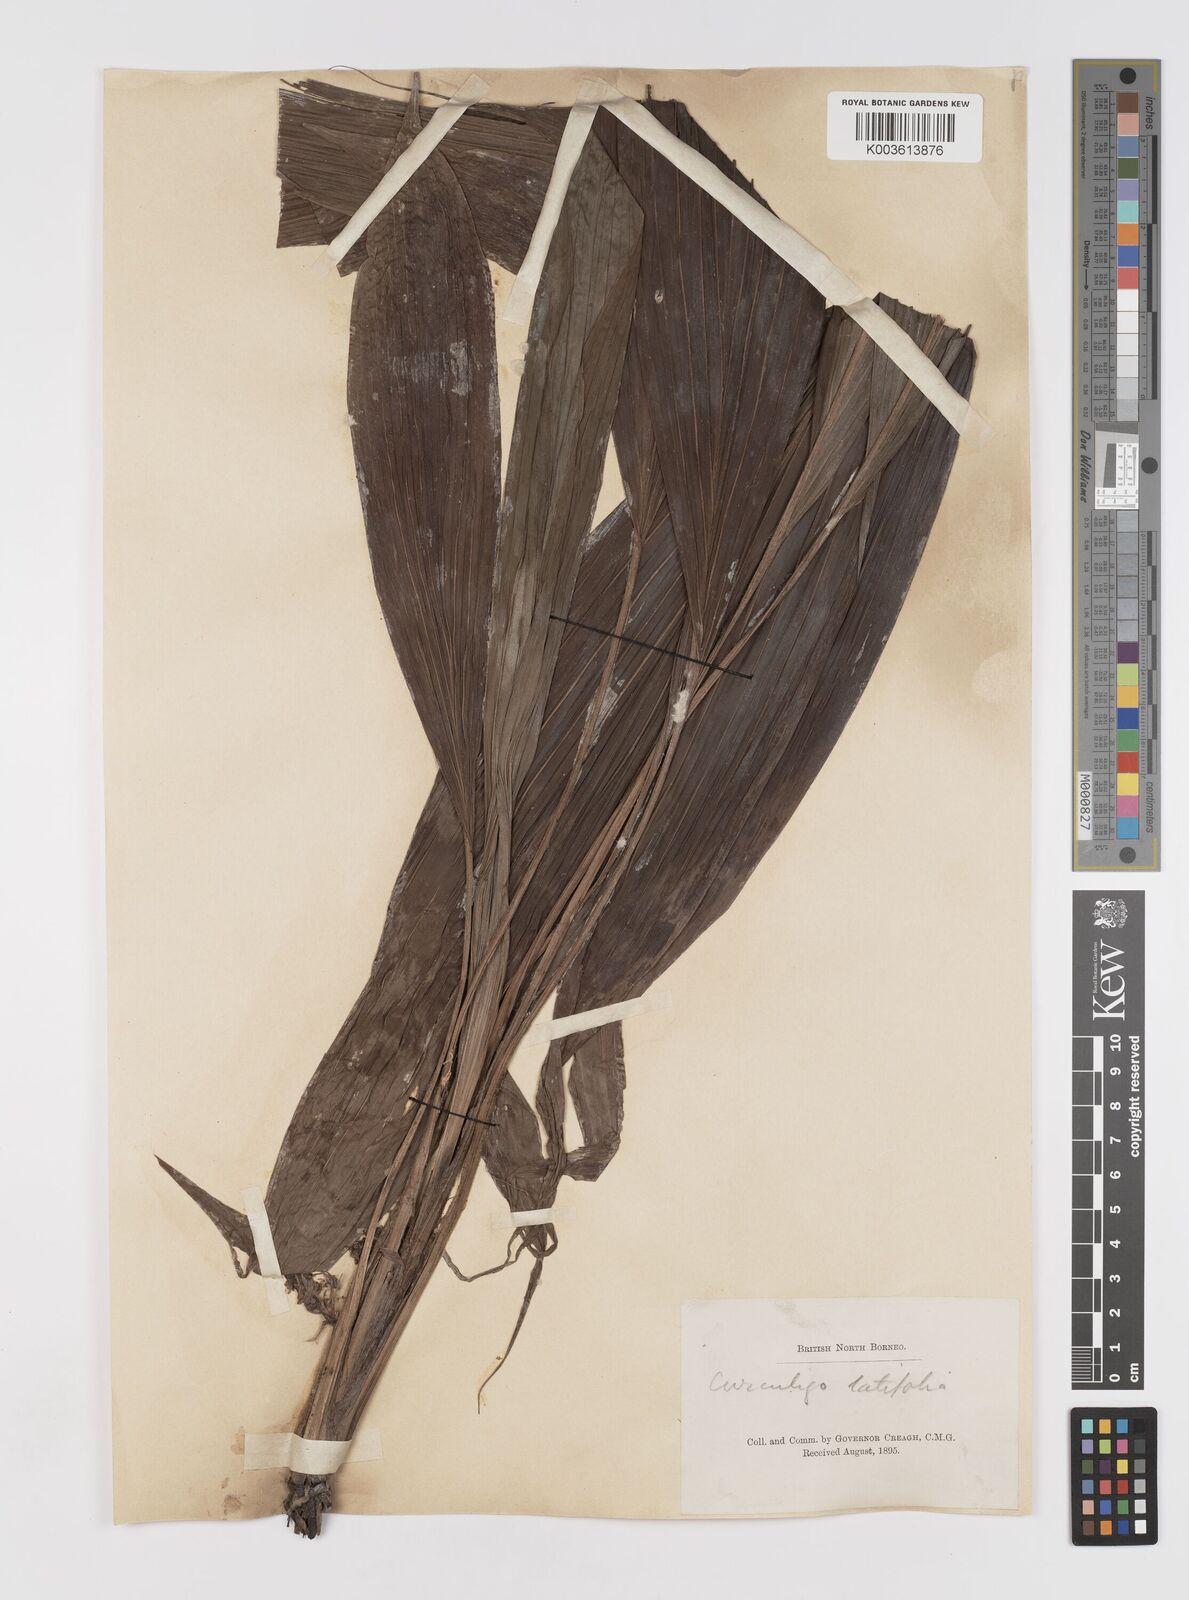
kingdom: Plantae
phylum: Tracheophyta
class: Liliopsida
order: Asparagales
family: Hypoxidaceae
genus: Curculigo
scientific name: Curculigo latifolia
